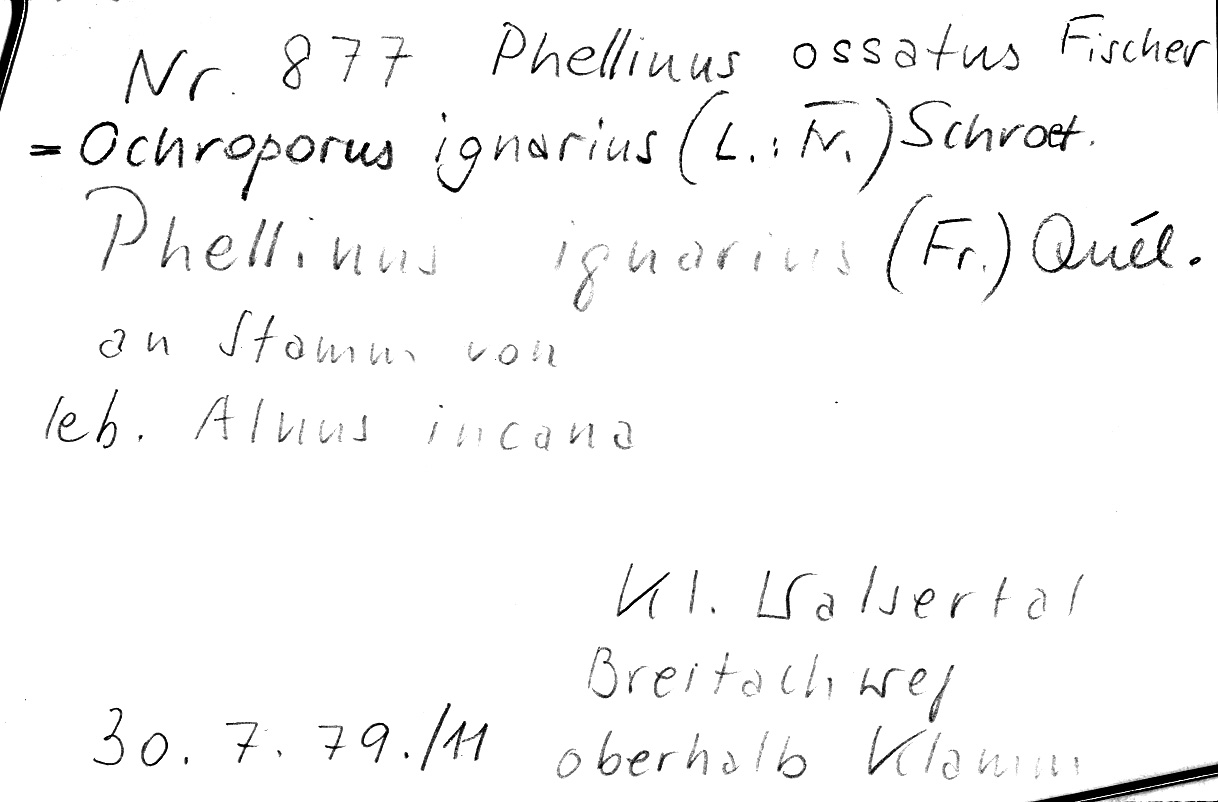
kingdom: Fungi
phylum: Basidiomycota
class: Agaricomycetes
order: Hymenochaetales
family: Hymenochaetaceae
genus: Phellinus
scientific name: Phellinus igniarius
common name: Willow bracket
